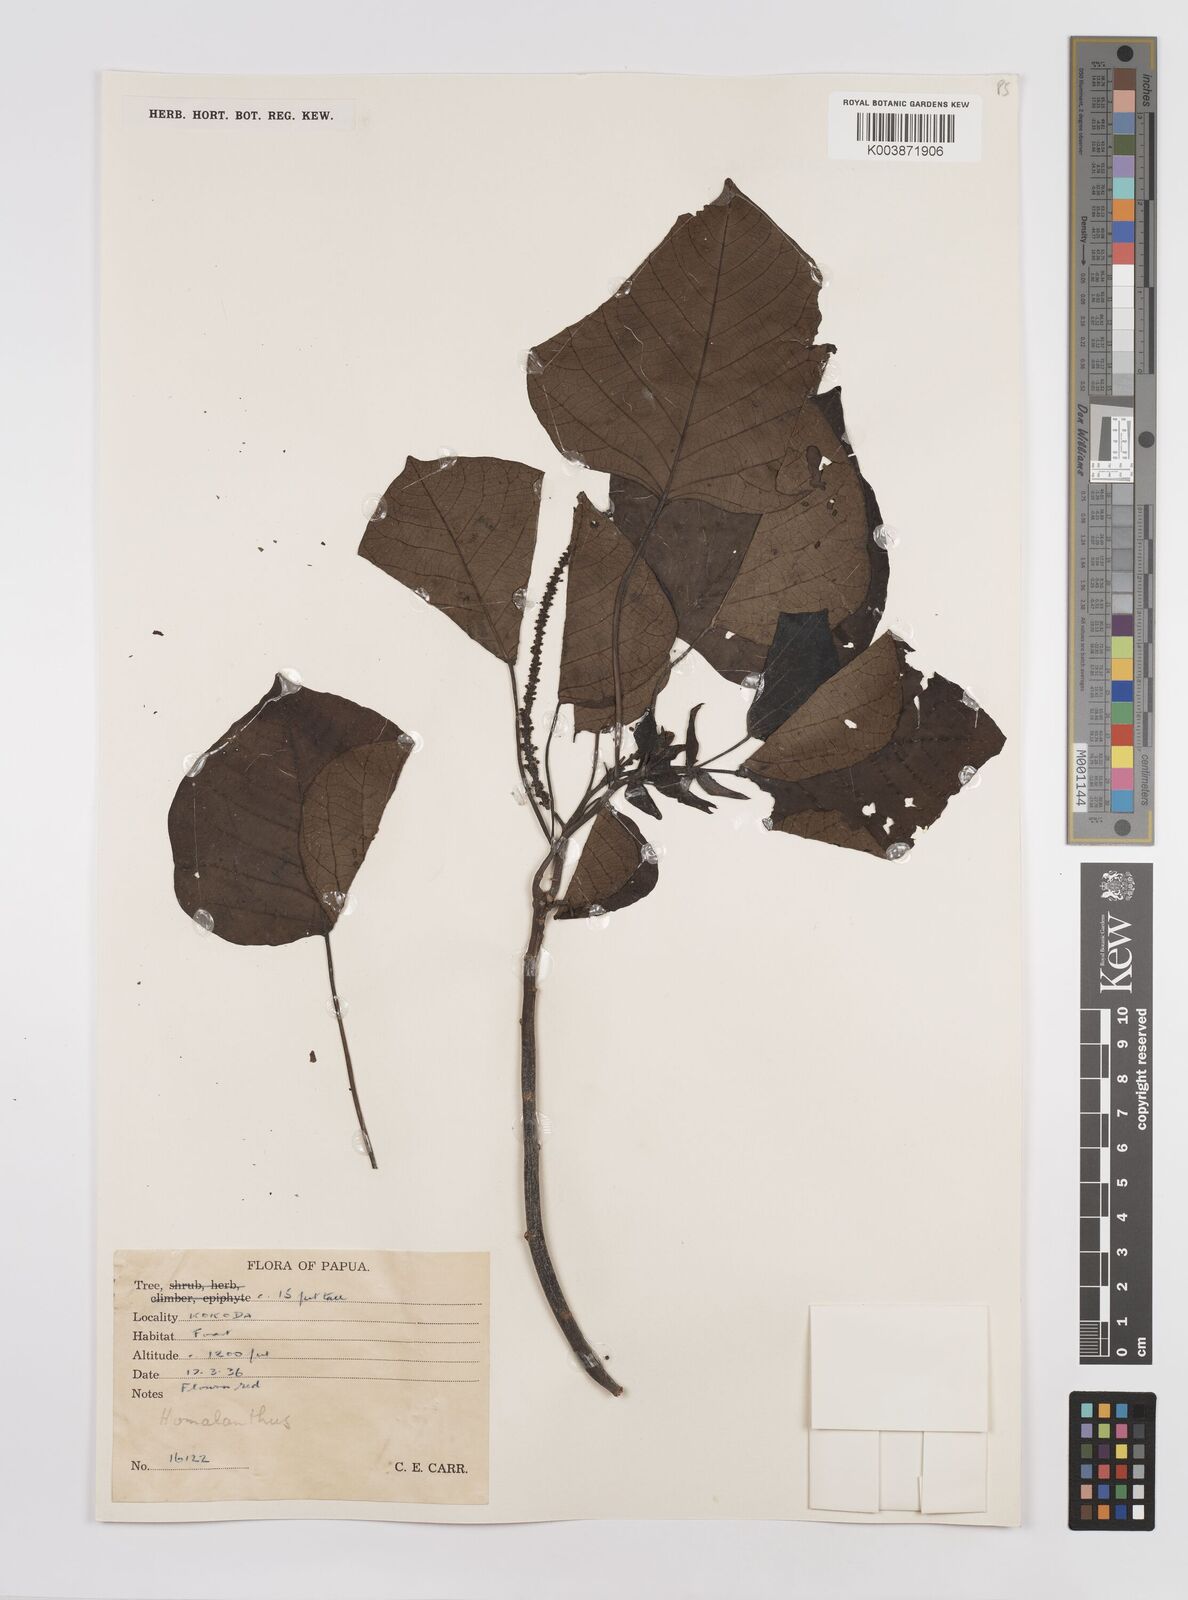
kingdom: Plantae
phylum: Tracheophyta
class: Magnoliopsida
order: Malpighiales
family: Euphorbiaceae
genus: Homalanthus
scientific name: Homalanthus novoguineensis
